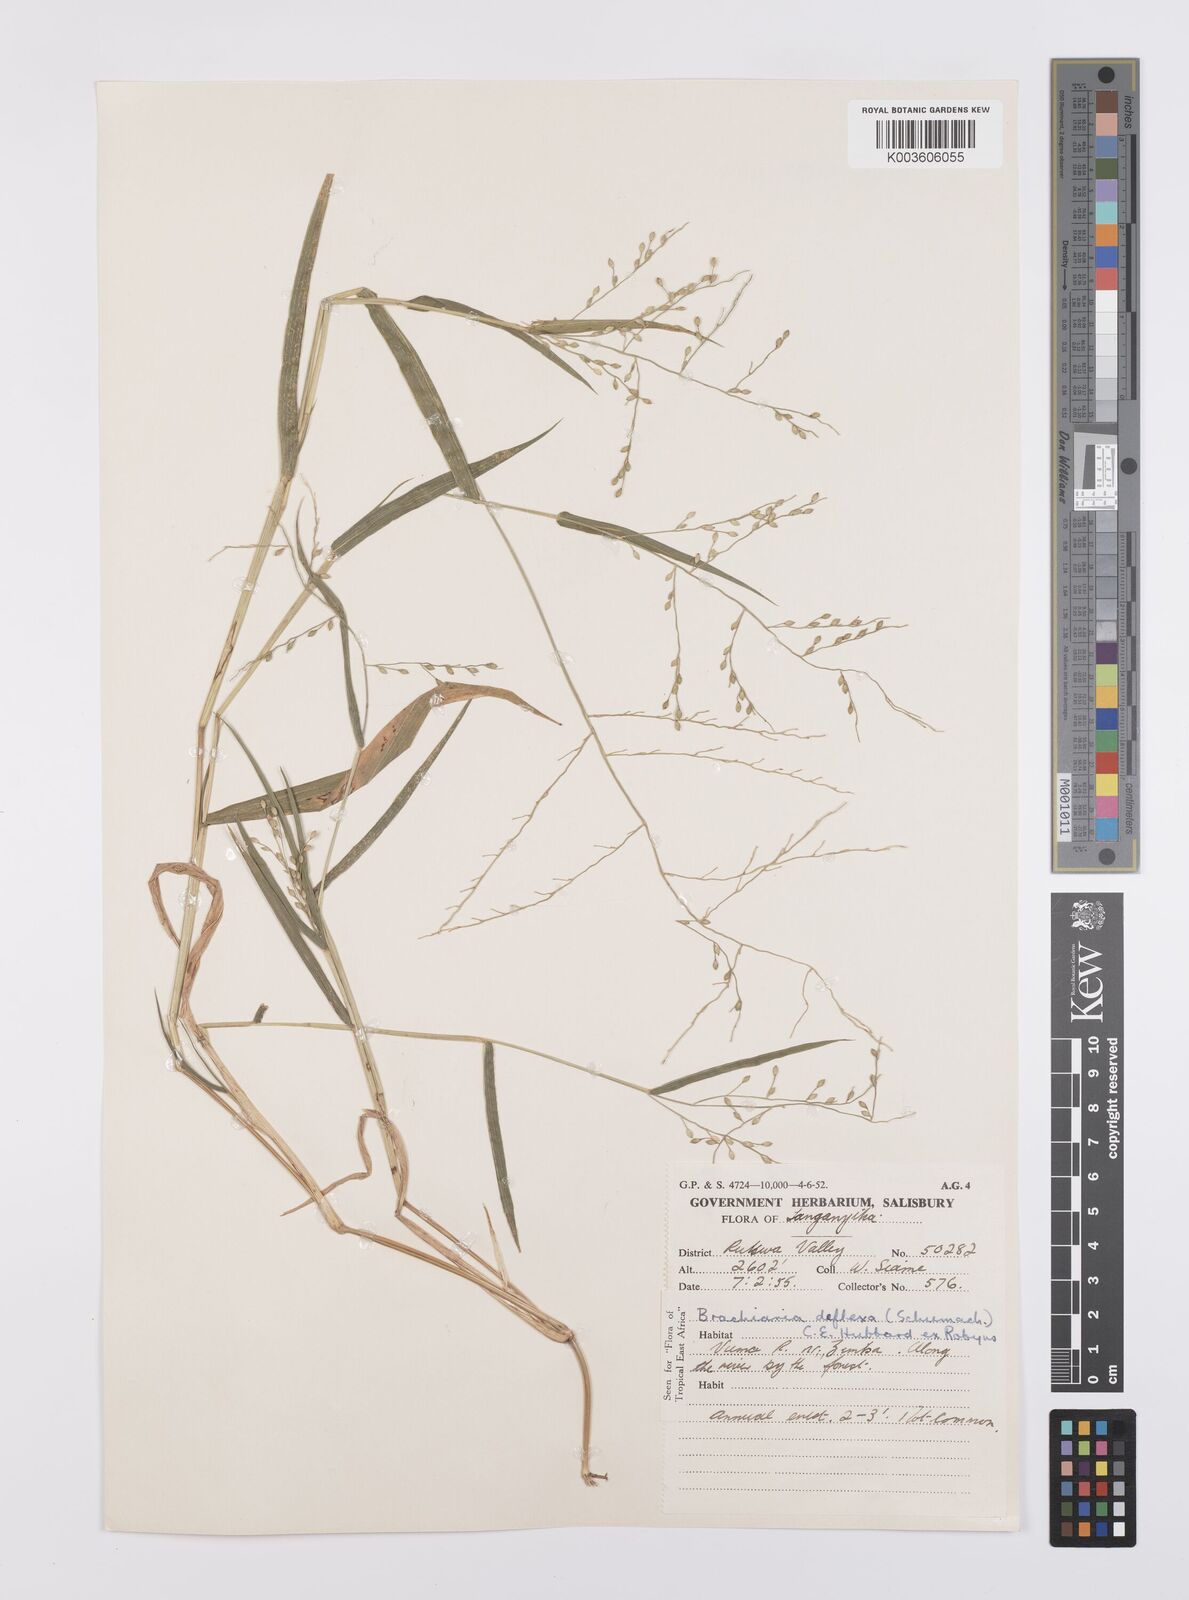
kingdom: Plantae
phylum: Tracheophyta
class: Liliopsida
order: Poales
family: Poaceae
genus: Urochloa
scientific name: Urochloa deflexa
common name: Guinea millet
